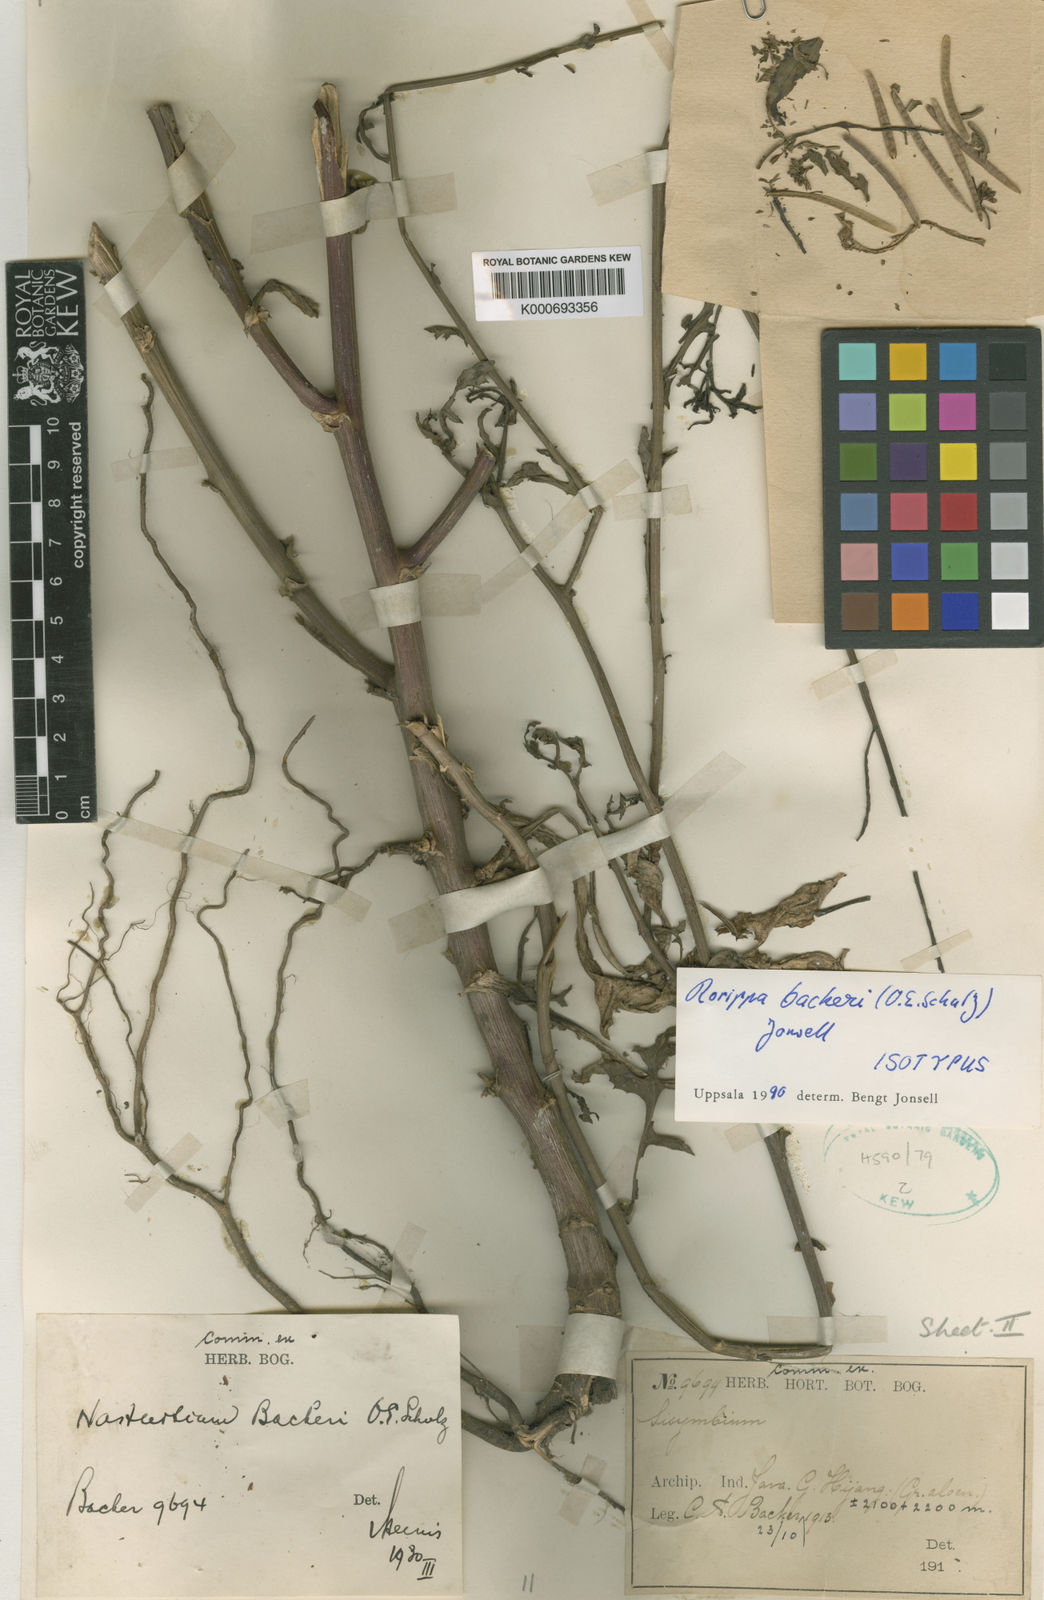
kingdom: Plantae
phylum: Tracheophyta
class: Magnoliopsida
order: Brassicales
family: Brassicaceae
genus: Rorippa
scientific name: Rorippa backeri
